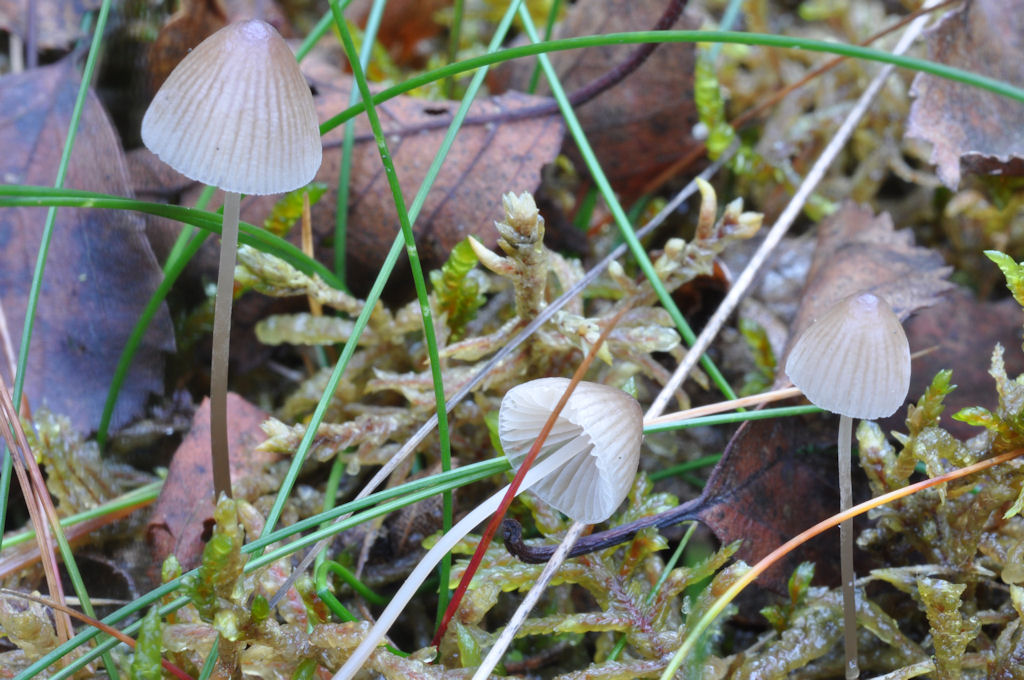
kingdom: Fungi
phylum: Basidiomycota
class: Agaricomycetes
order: Agaricales
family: Mycenaceae
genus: Mycena
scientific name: Mycena filopes
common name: jod-huesvamp
